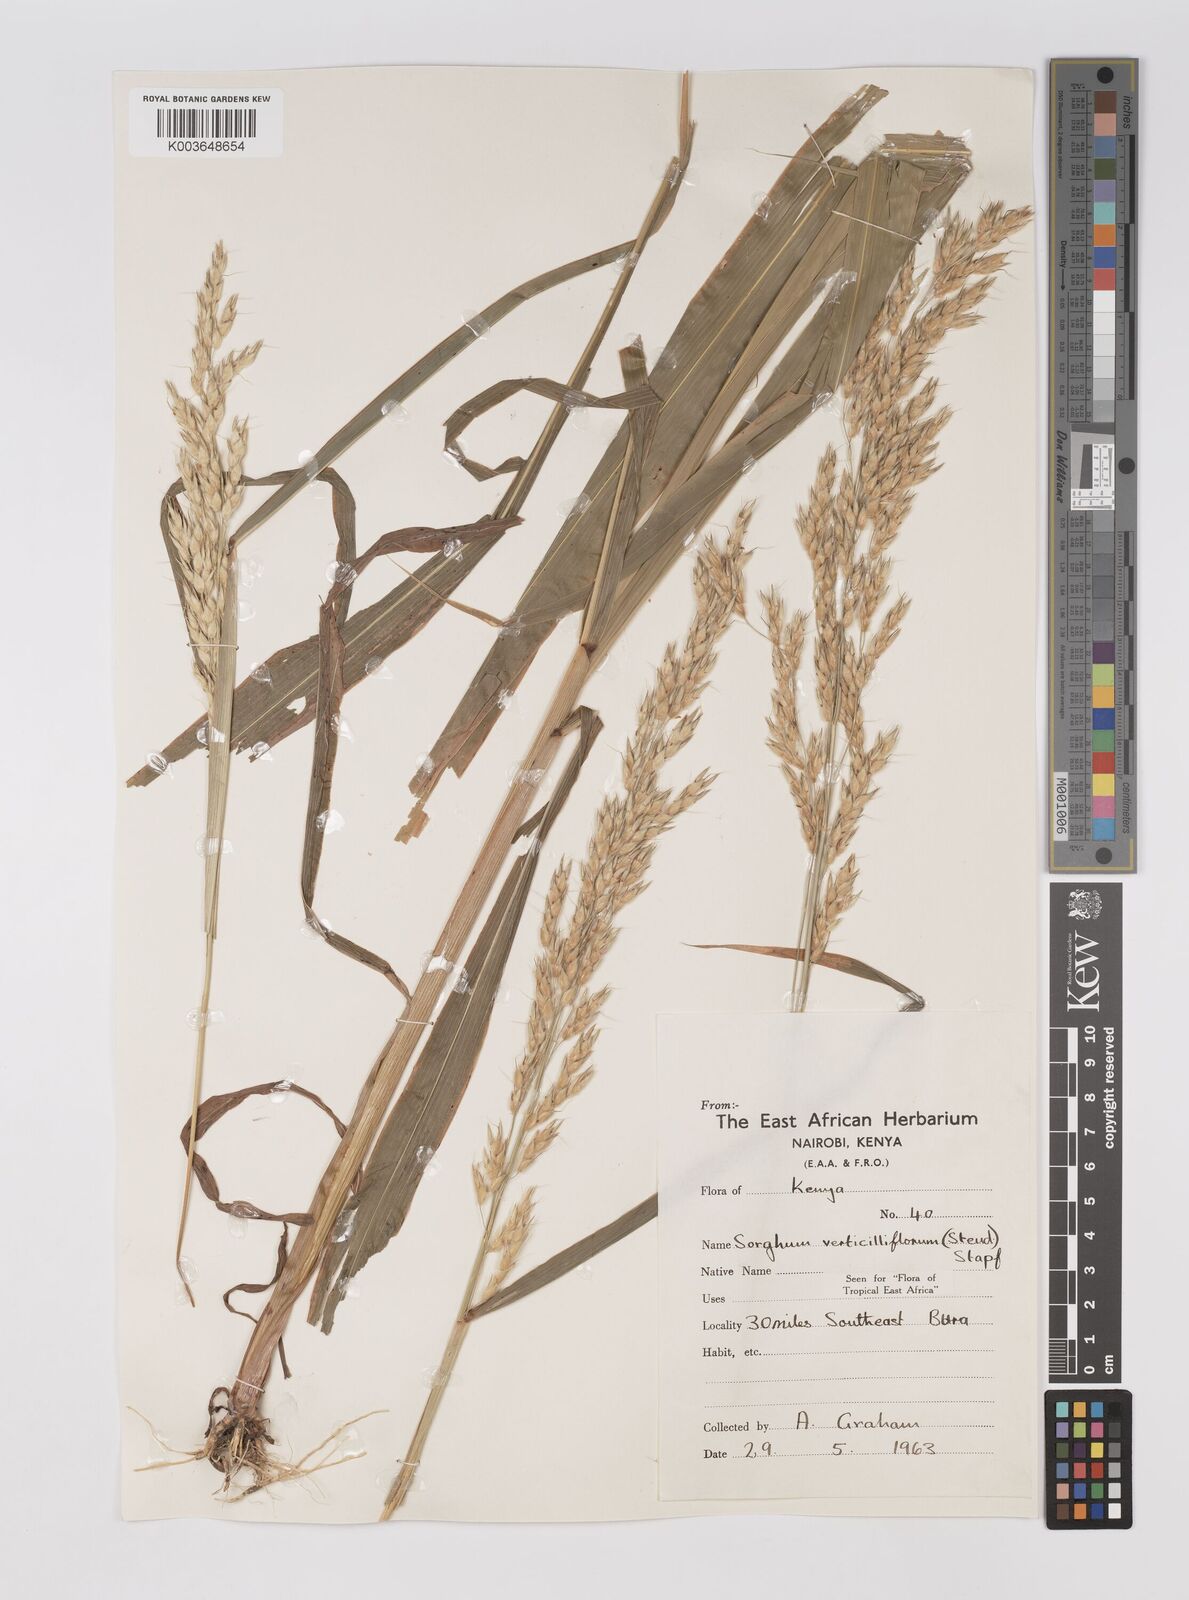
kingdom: Plantae
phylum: Tracheophyta
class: Liliopsida
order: Poales
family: Poaceae
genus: Sorghum
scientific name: Sorghum arundinaceum
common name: Sorghum
